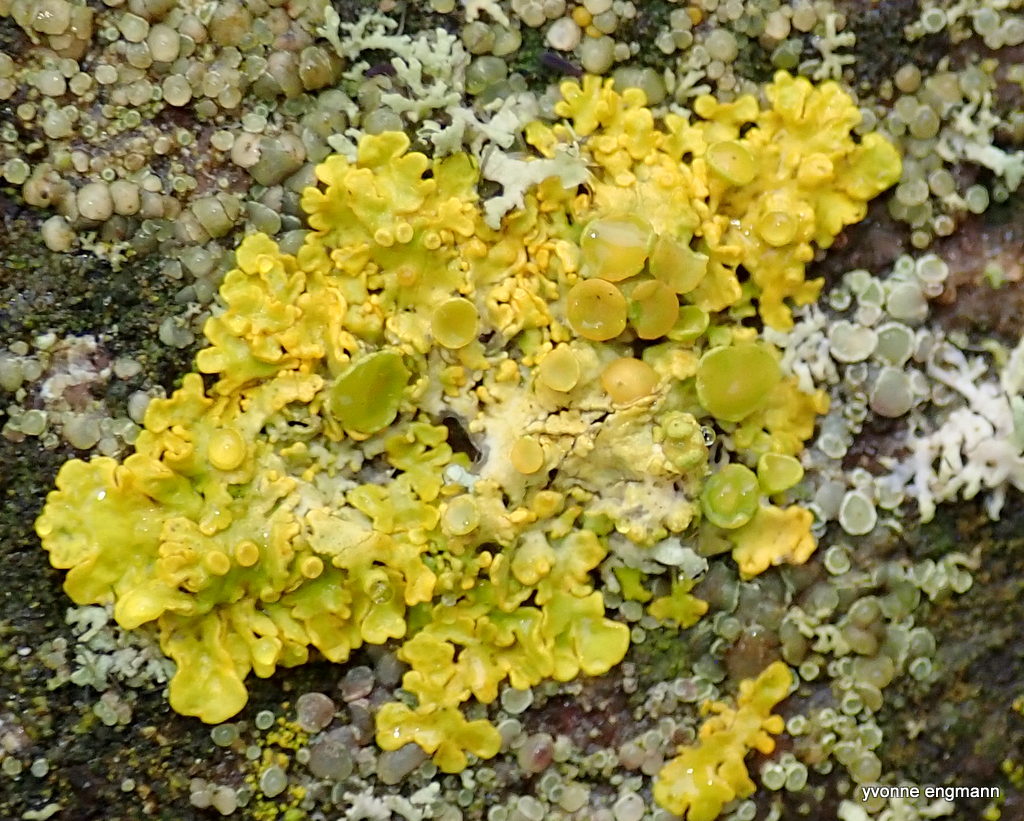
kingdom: Fungi
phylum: Ascomycota
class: Lecanoromycetes
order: Teloschistales
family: Teloschistaceae
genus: Xanthoria
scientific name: Xanthoria parietina
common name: almindelig væggelav
